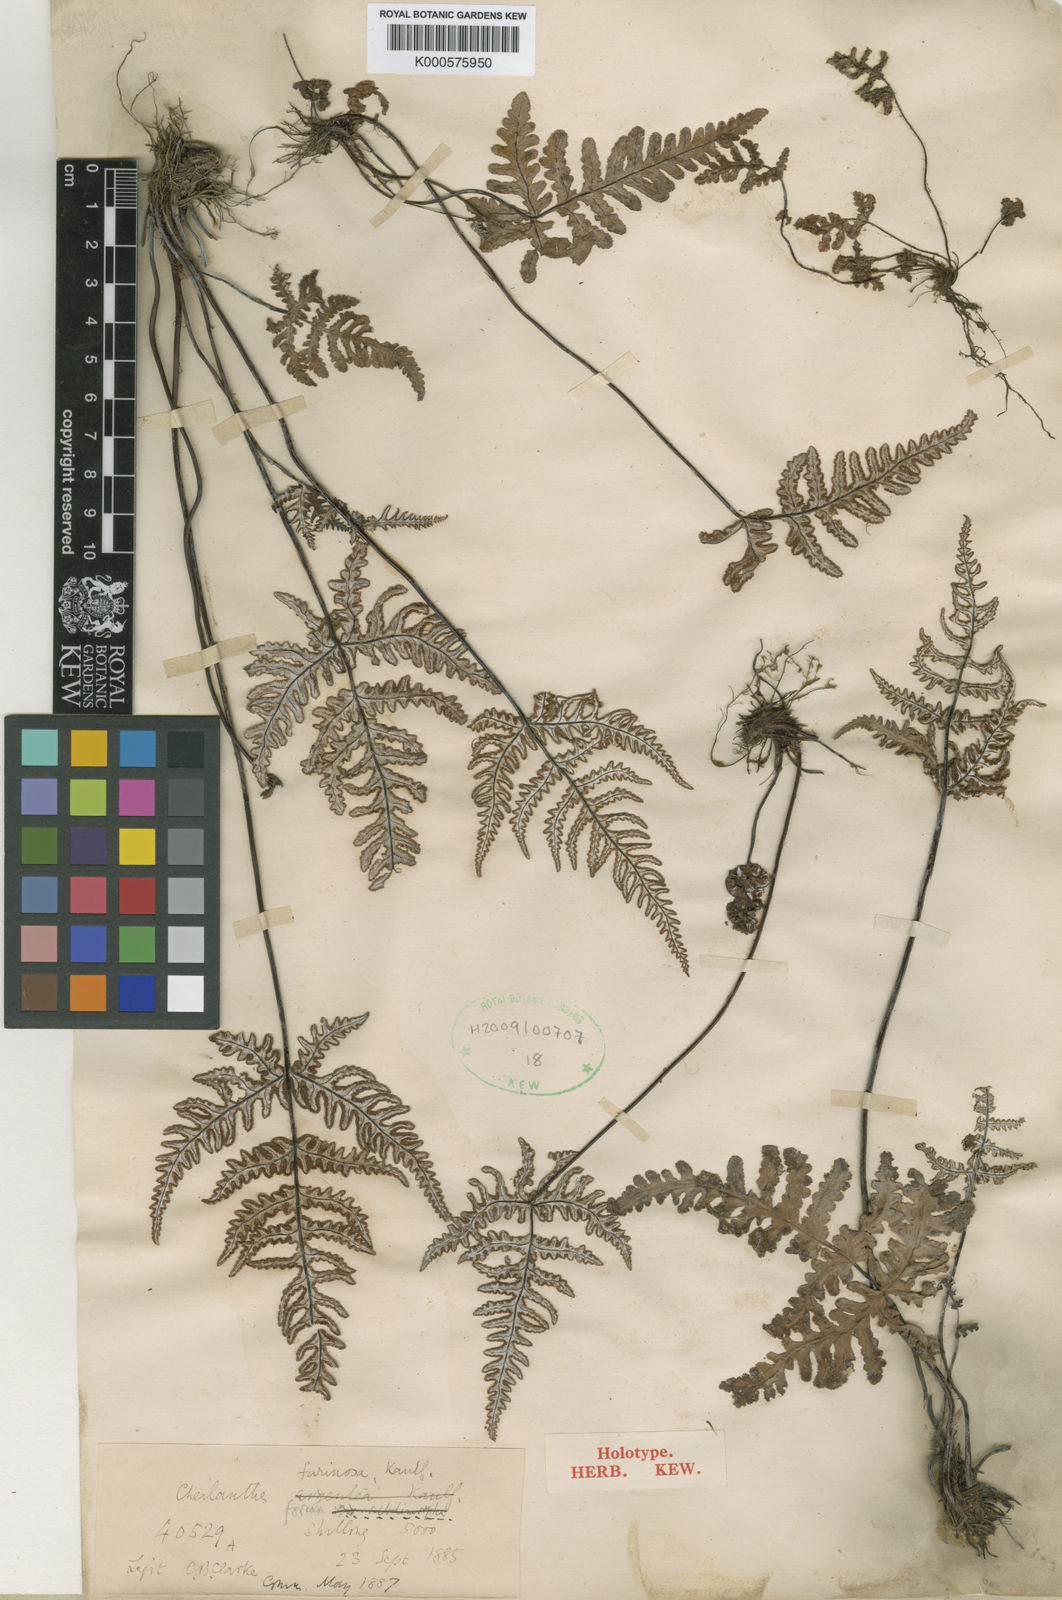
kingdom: Plantae
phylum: Tracheophyta
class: Polypodiopsida
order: Polypodiales
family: Pteridaceae
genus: Aleuritopteris
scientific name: Aleuritopteris subdimorpha
